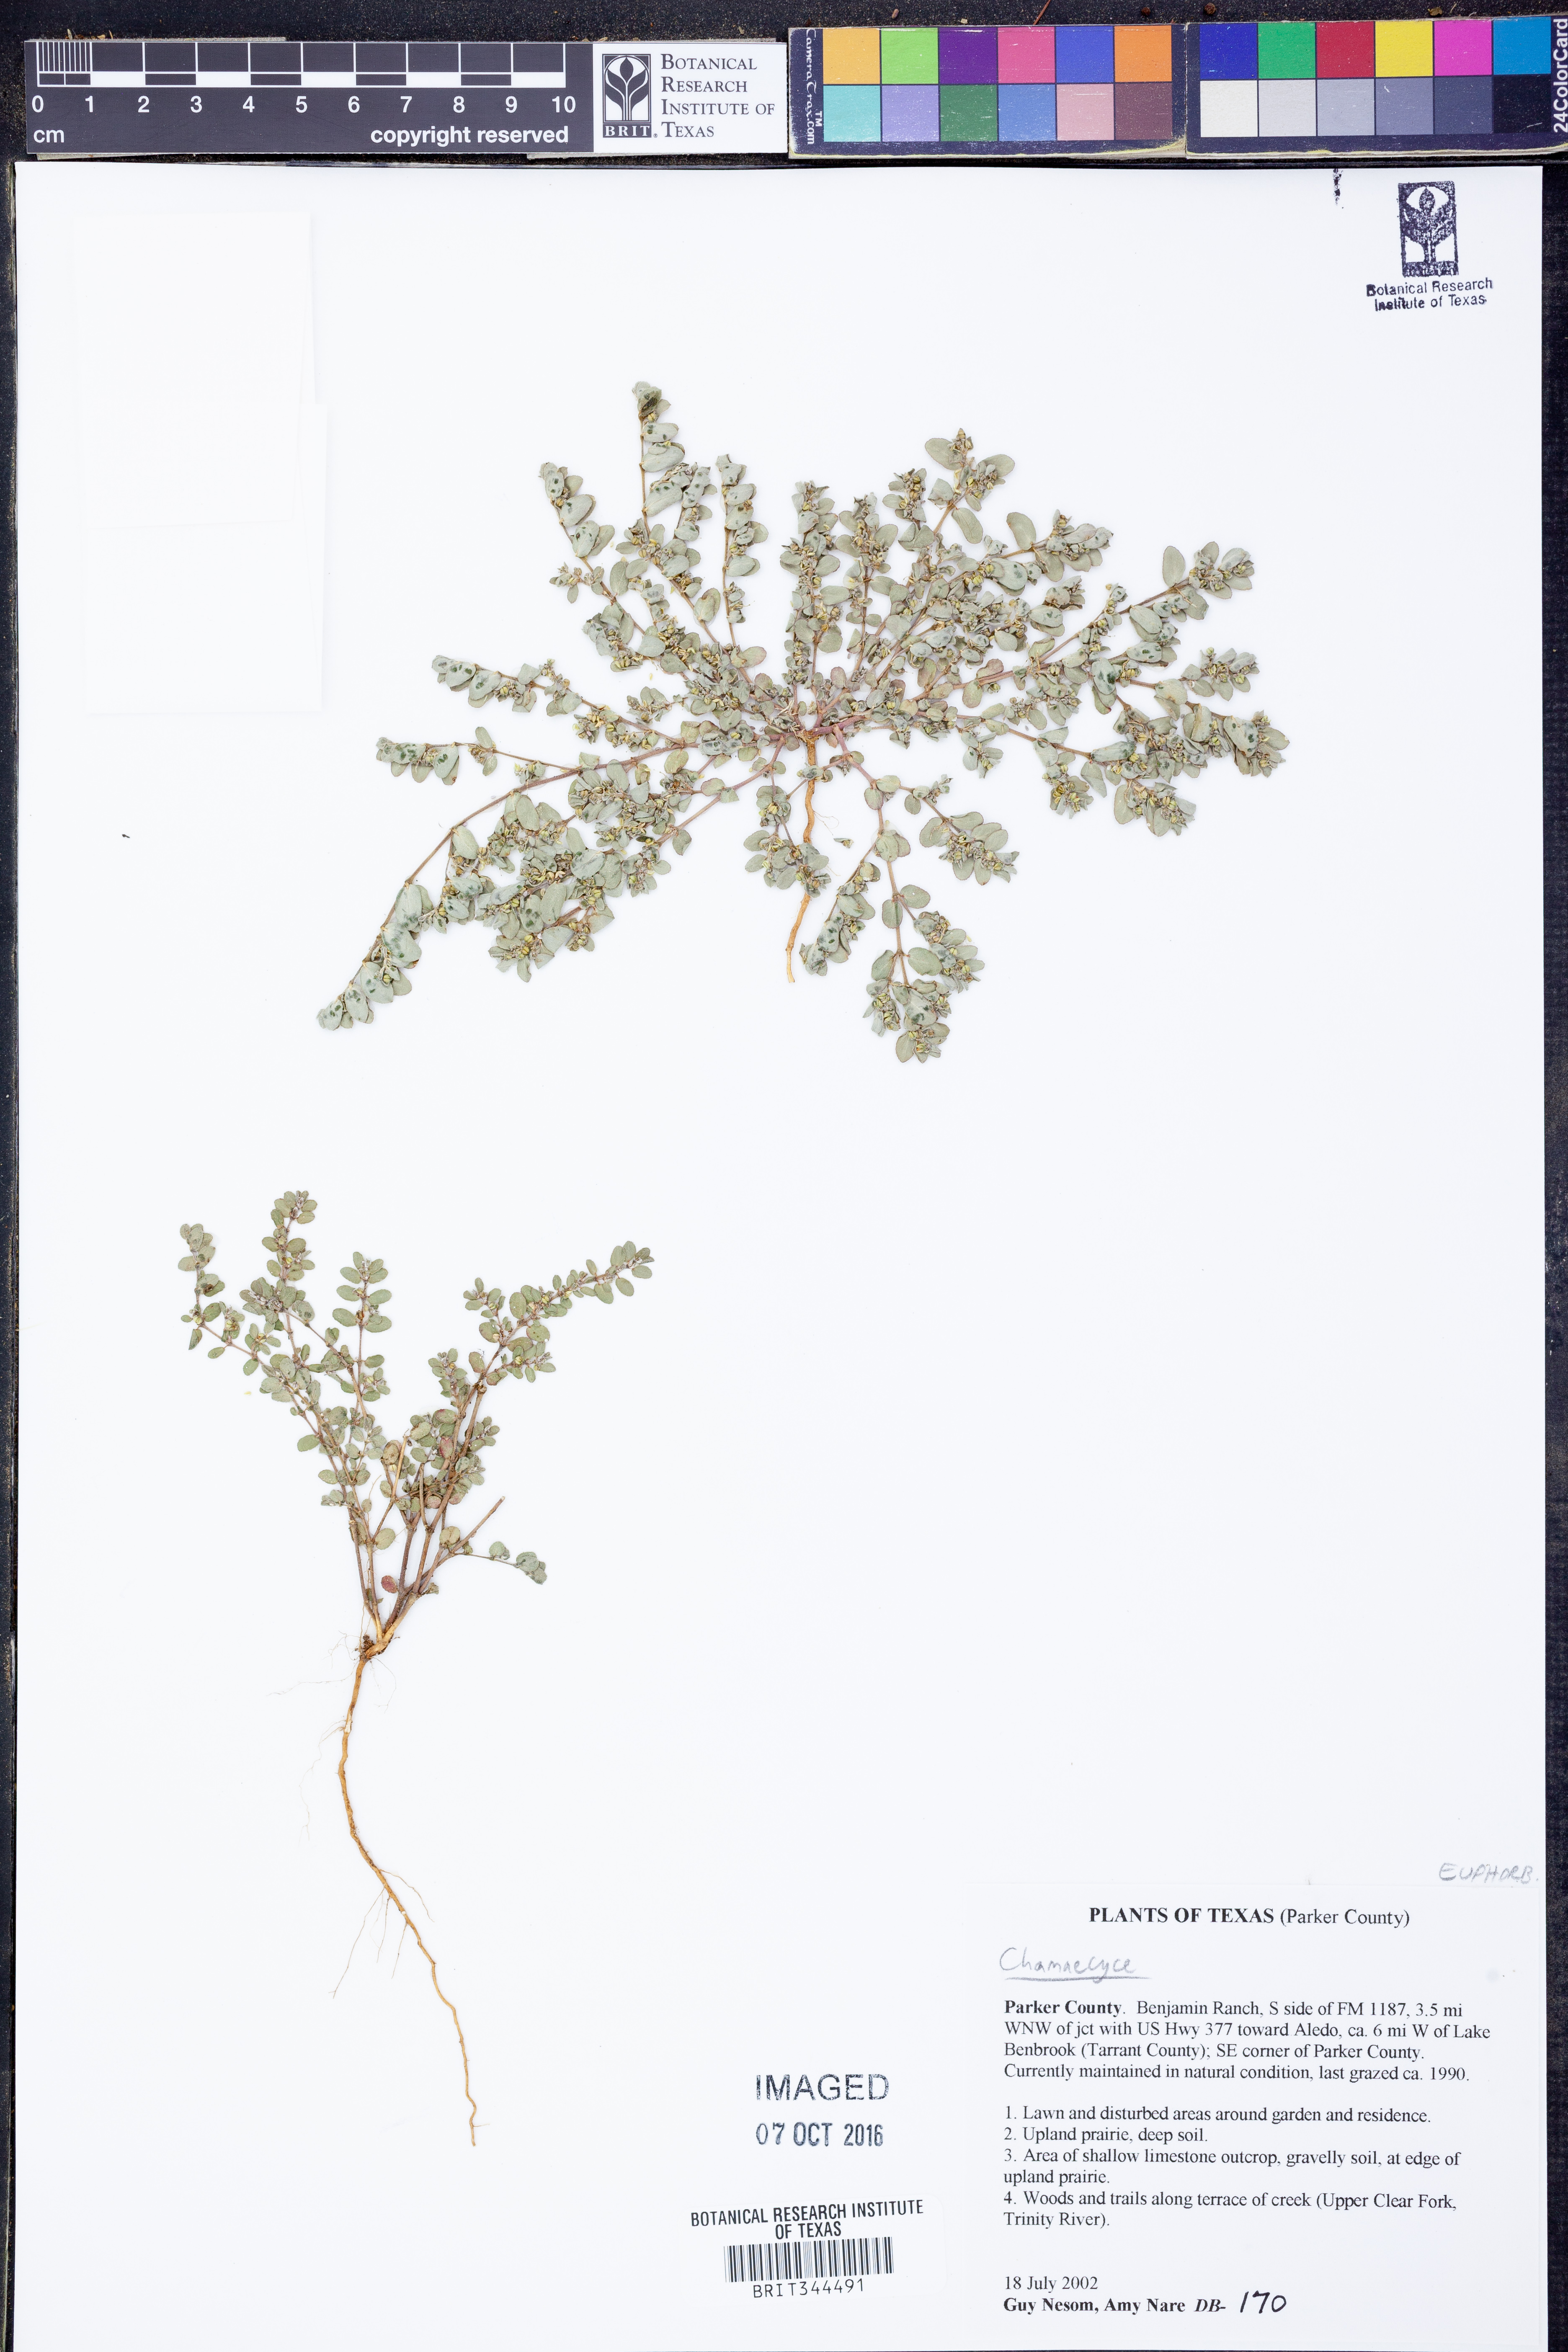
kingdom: Plantae
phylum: Tracheophyta
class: Magnoliopsida
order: Malpighiales
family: Euphorbiaceae
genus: Chamaesyce
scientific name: Chamaesyce
